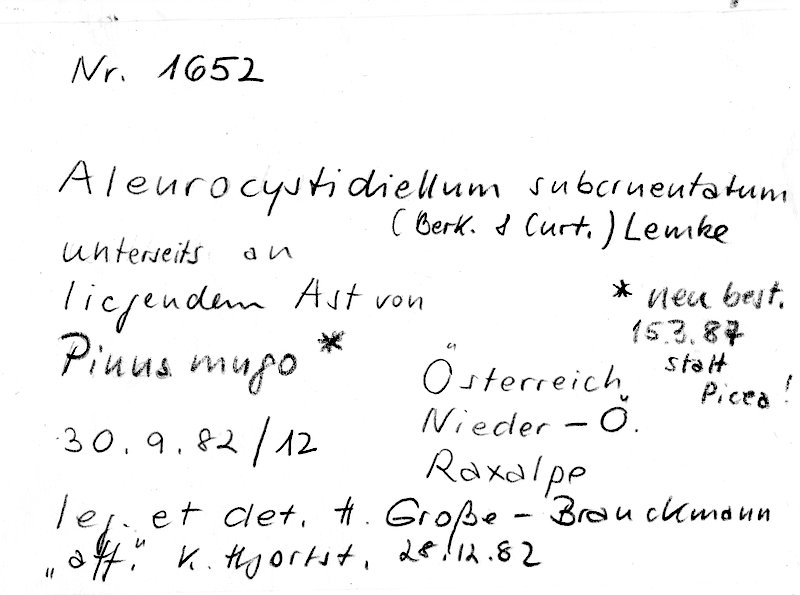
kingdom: Fungi
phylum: Basidiomycota
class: Agaricomycetes
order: Russulales
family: Stereaceae
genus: Aleurocystidiellum
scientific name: Aleurocystidiellum subcruentatum
